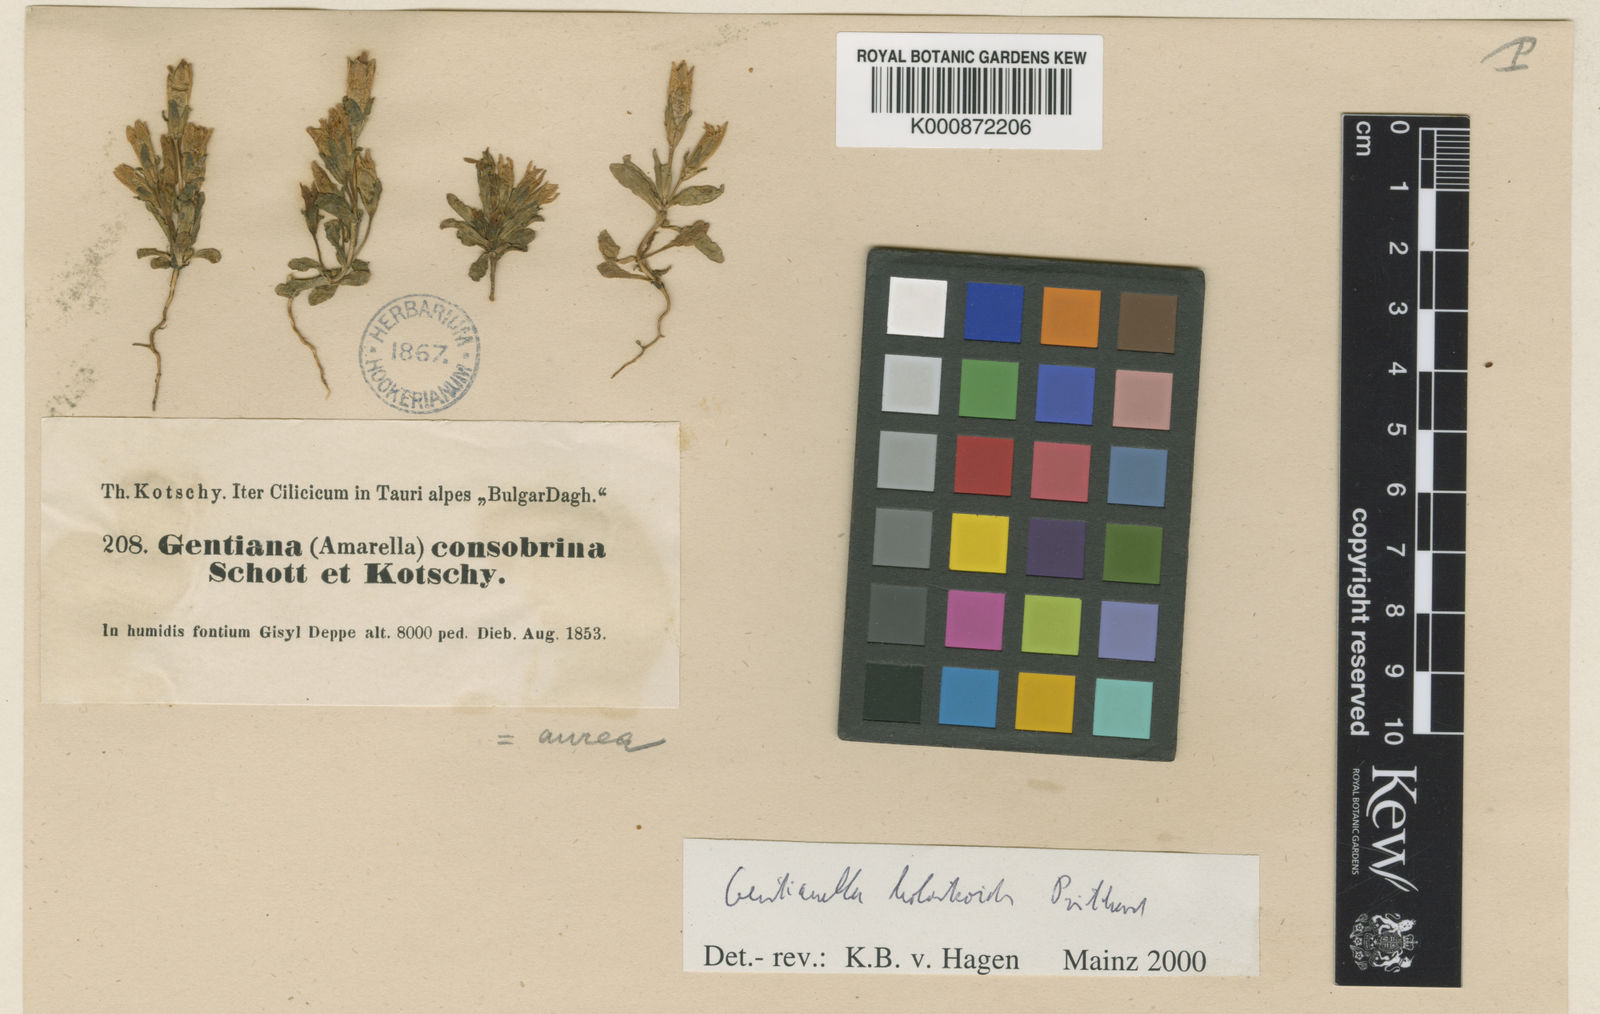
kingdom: Plantae
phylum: Tracheophyta
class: Magnoliopsida
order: Gentianales
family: Gentianaceae
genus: Gentianella
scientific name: Gentianella aurea
